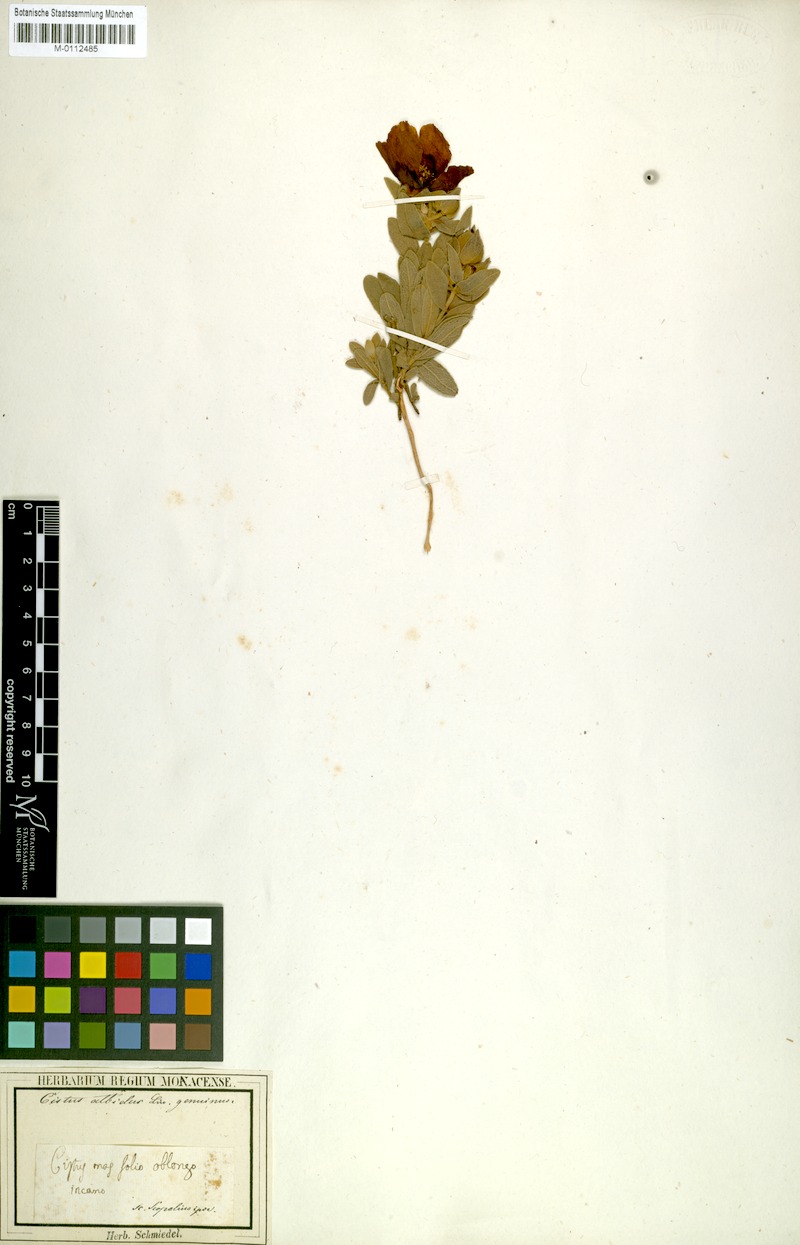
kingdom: Plantae
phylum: Tracheophyta
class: Magnoliopsida
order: Malvales
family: Cistaceae
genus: Cistus
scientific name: Cistus albidus
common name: White-leaf rock-rose
